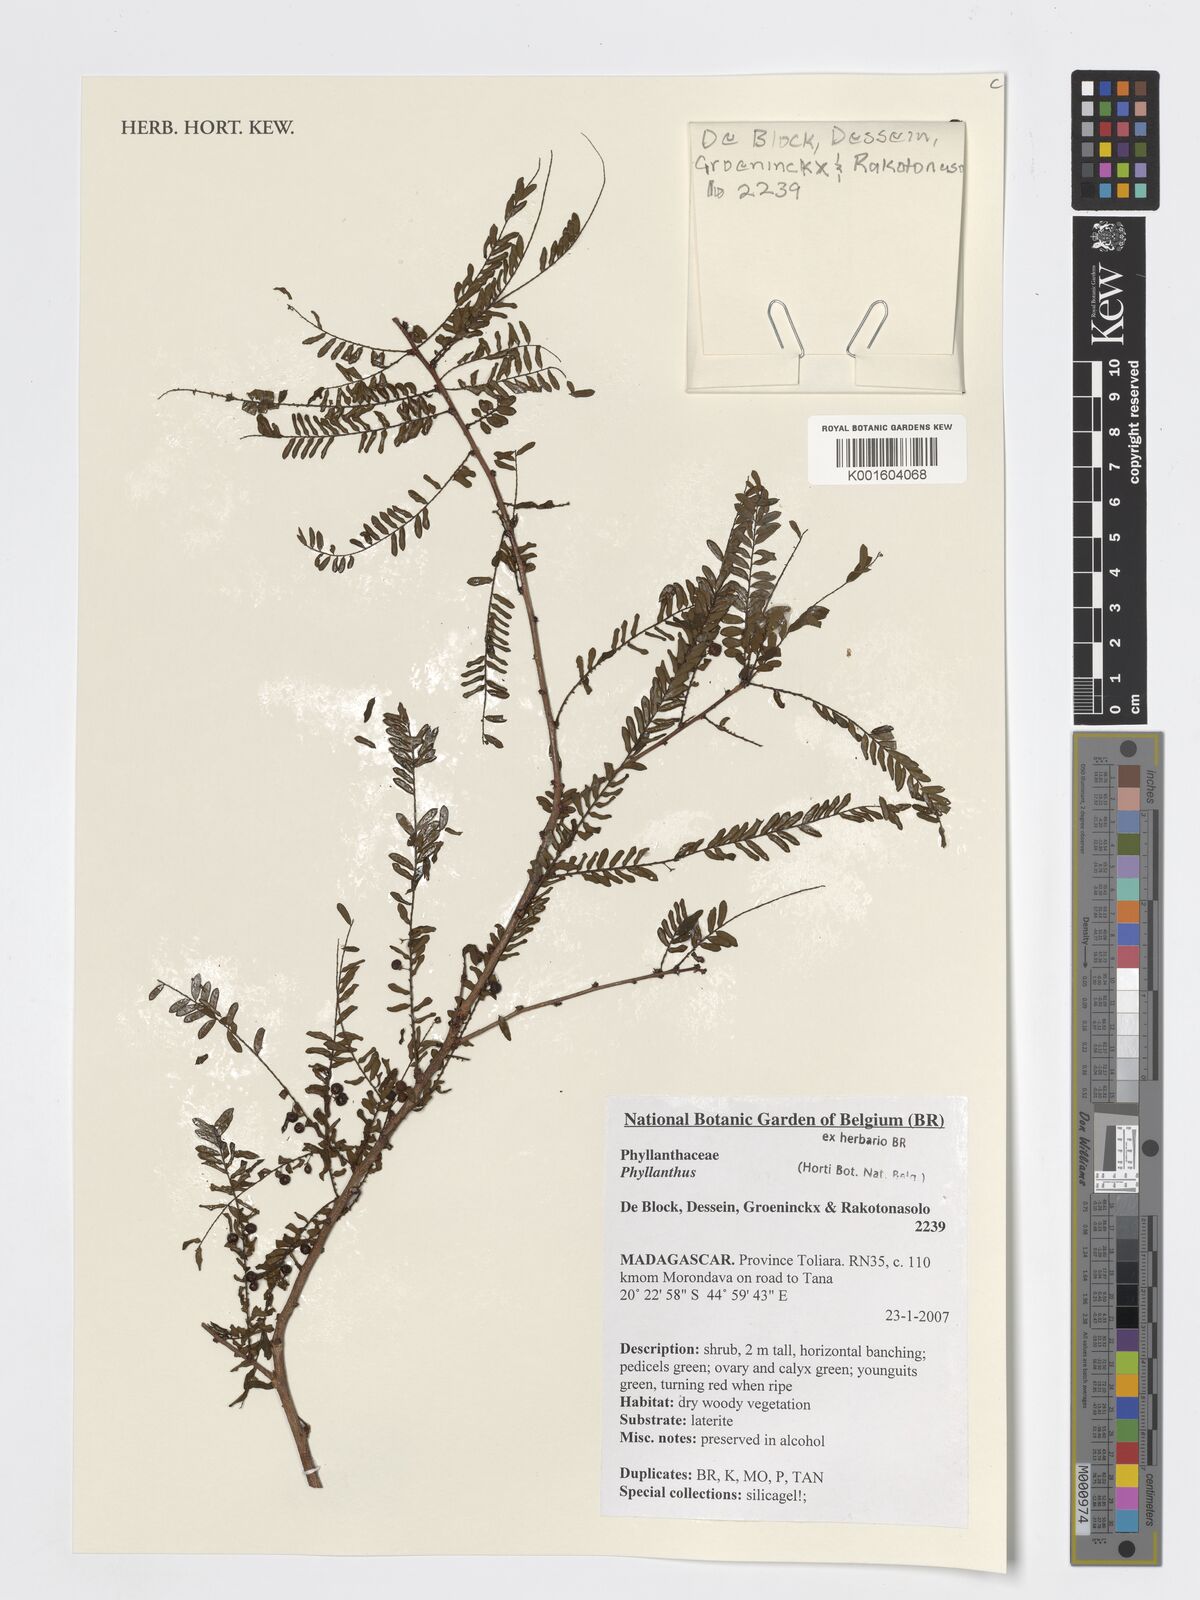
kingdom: Plantae
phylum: Tracheophyta
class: Magnoliopsida
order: Malpighiales
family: Phyllanthaceae
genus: Phyllanthus
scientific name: Phyllanthus
